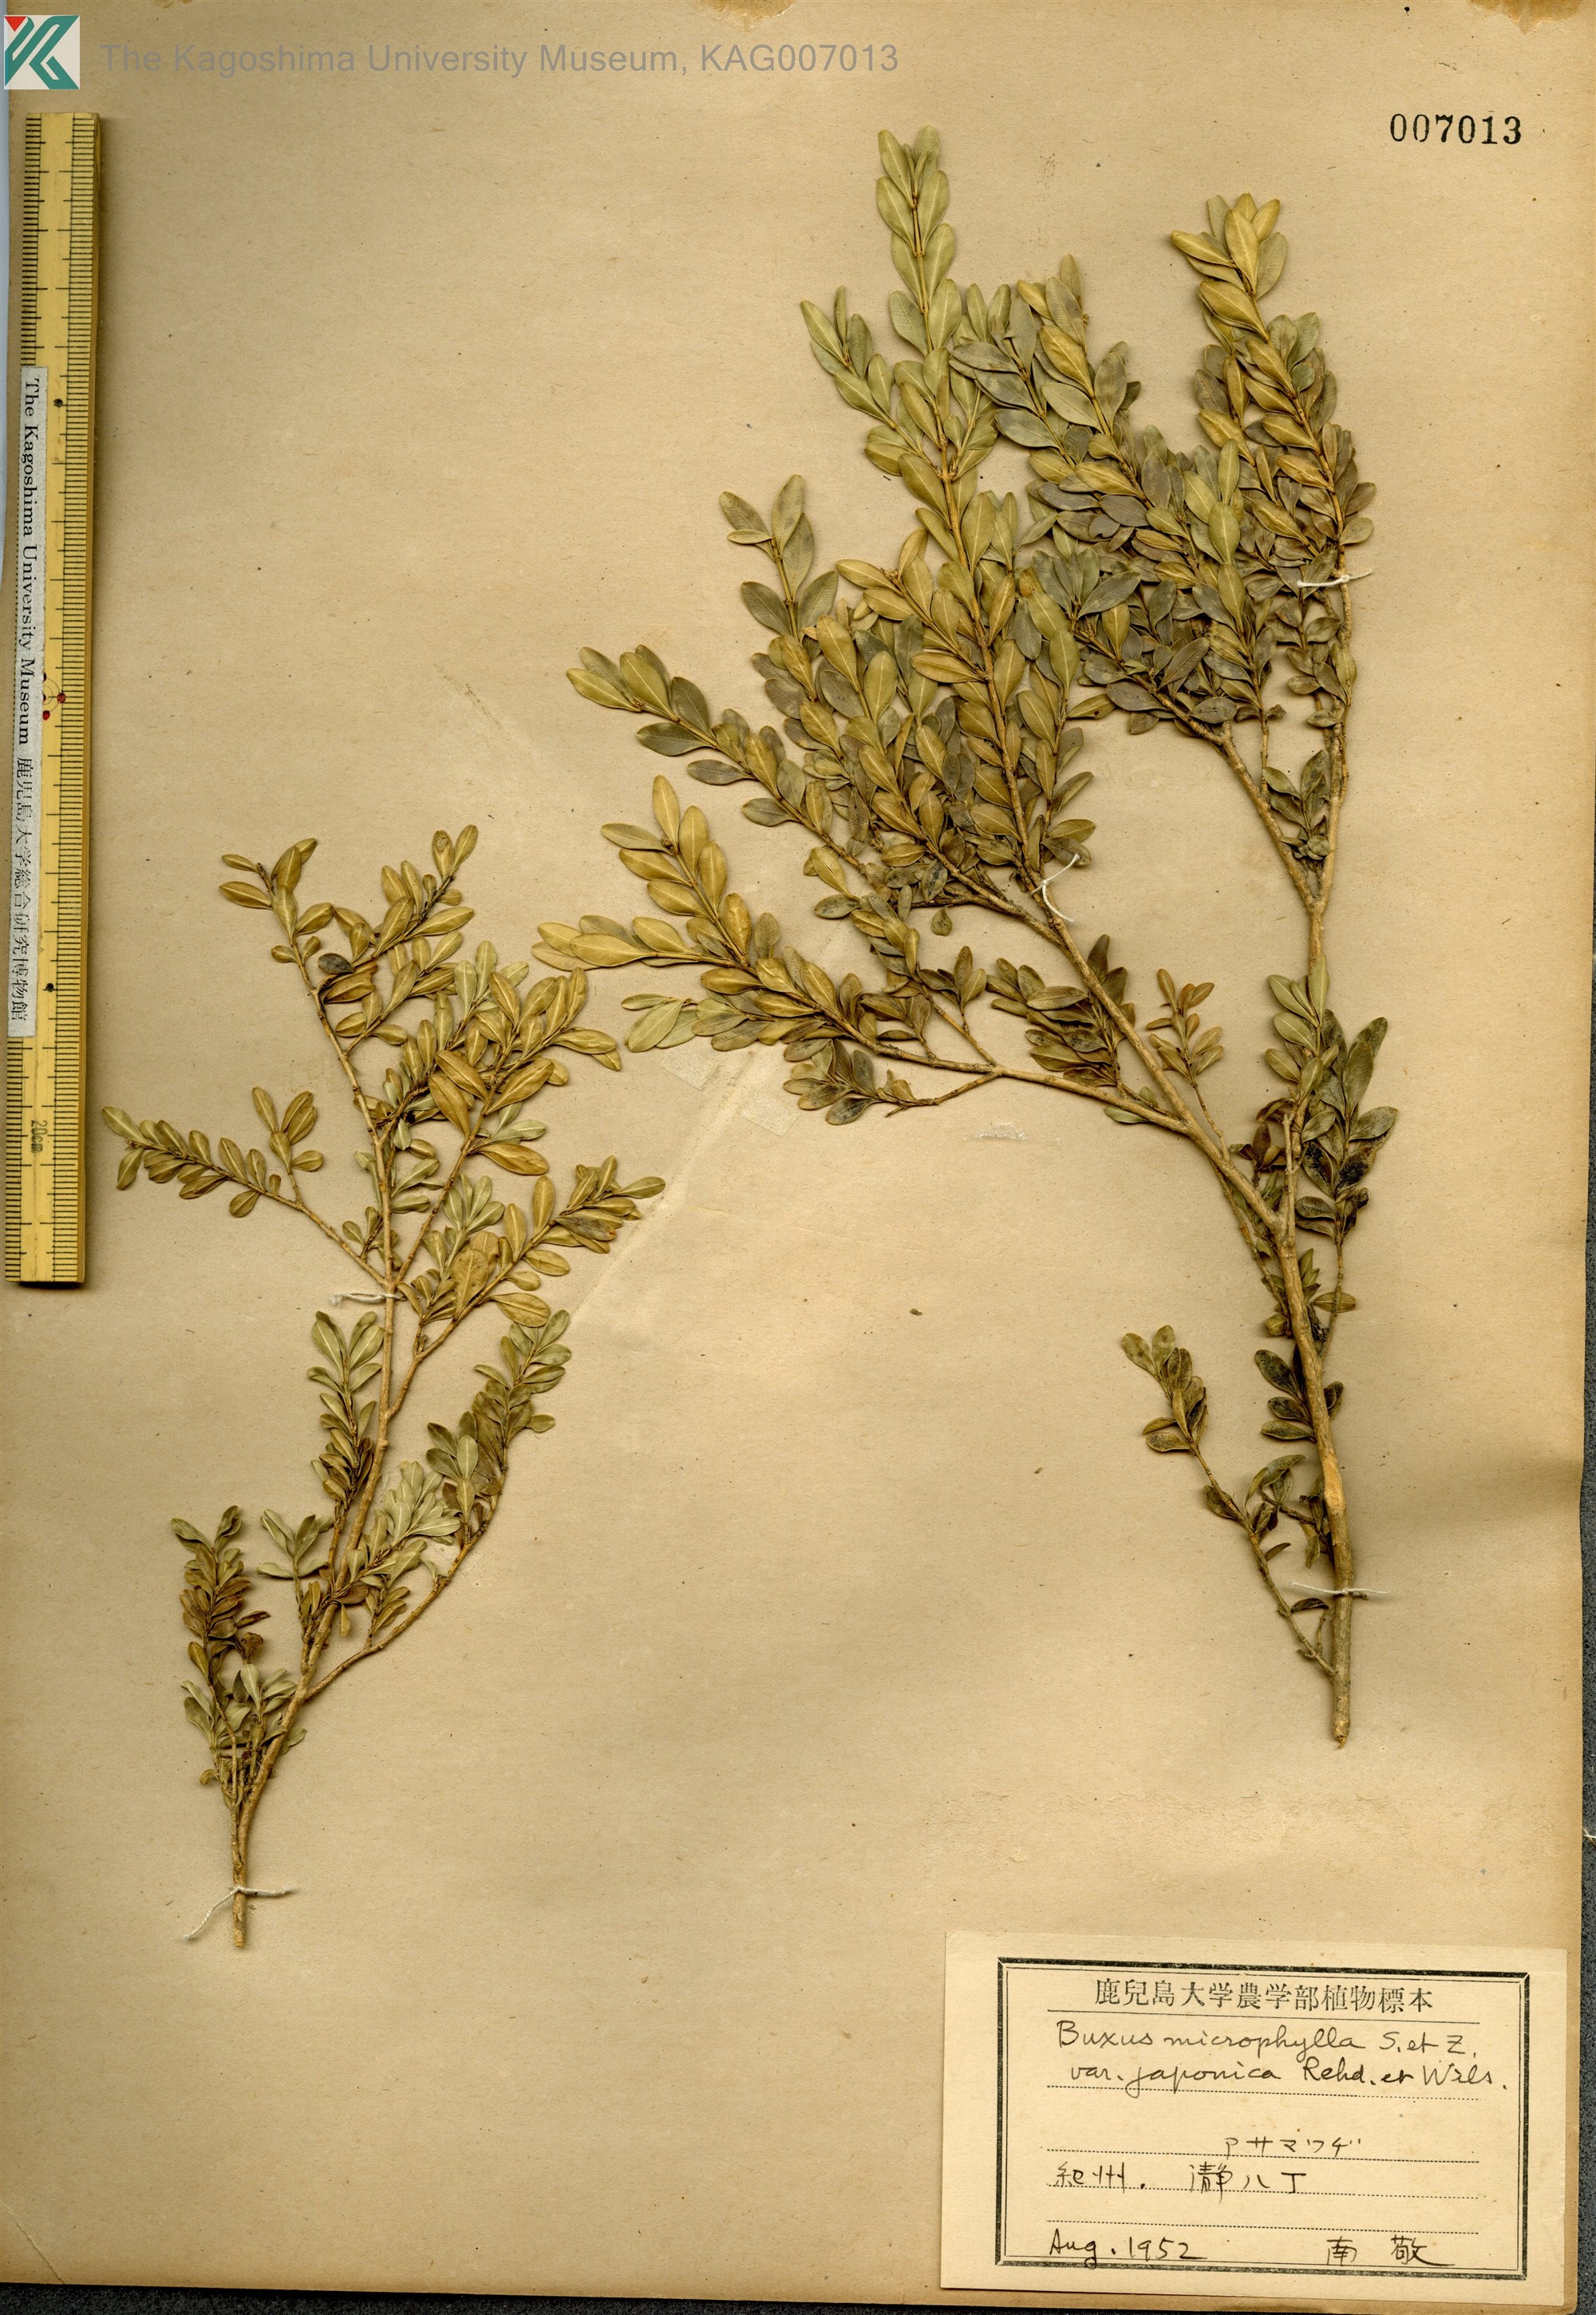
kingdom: Plantae
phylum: Tracheophyta
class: Magnoliopsida
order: Buxales
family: Buxaceae
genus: Buxus
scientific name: Buxus microphylla
